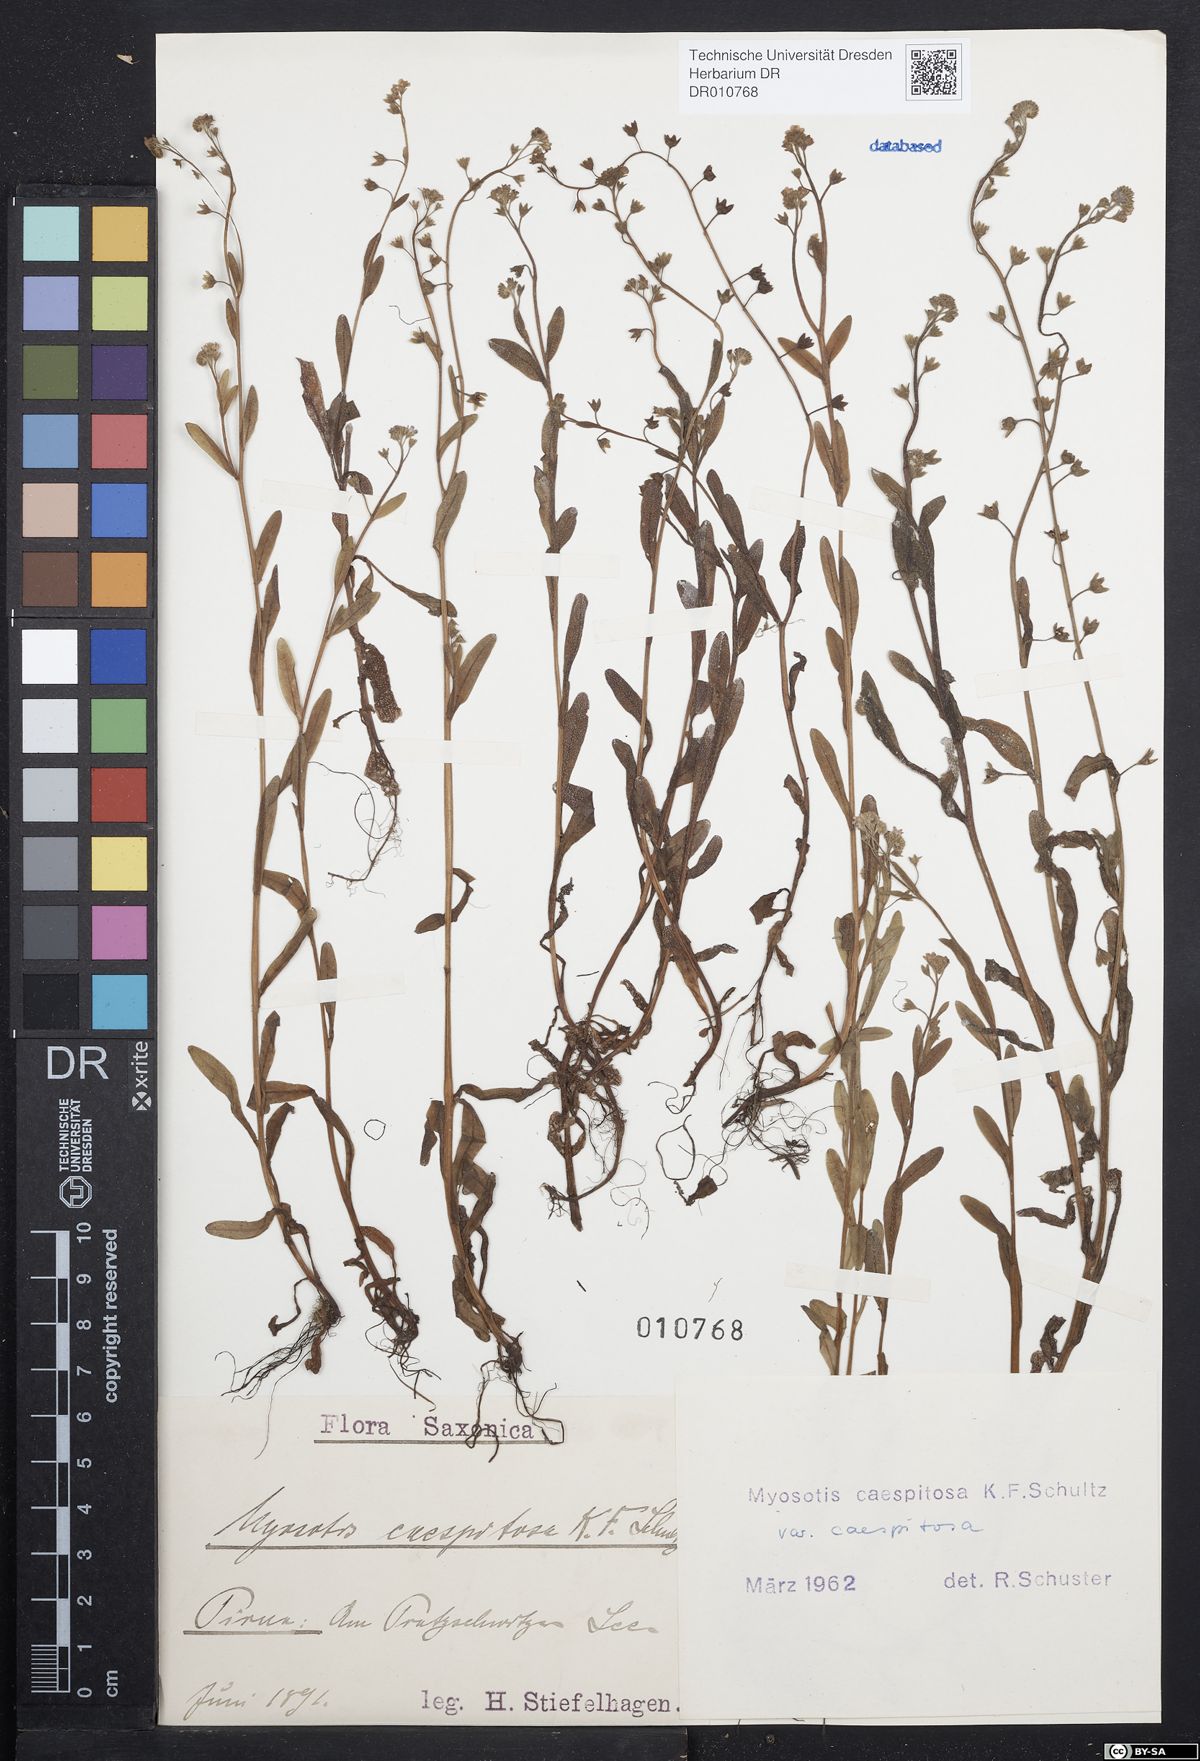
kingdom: Plantae
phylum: Tracheophyta
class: Magnoliopsida
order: Boraginales
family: Boraginaceae
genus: Myosotis
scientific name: Myosotis laxa
